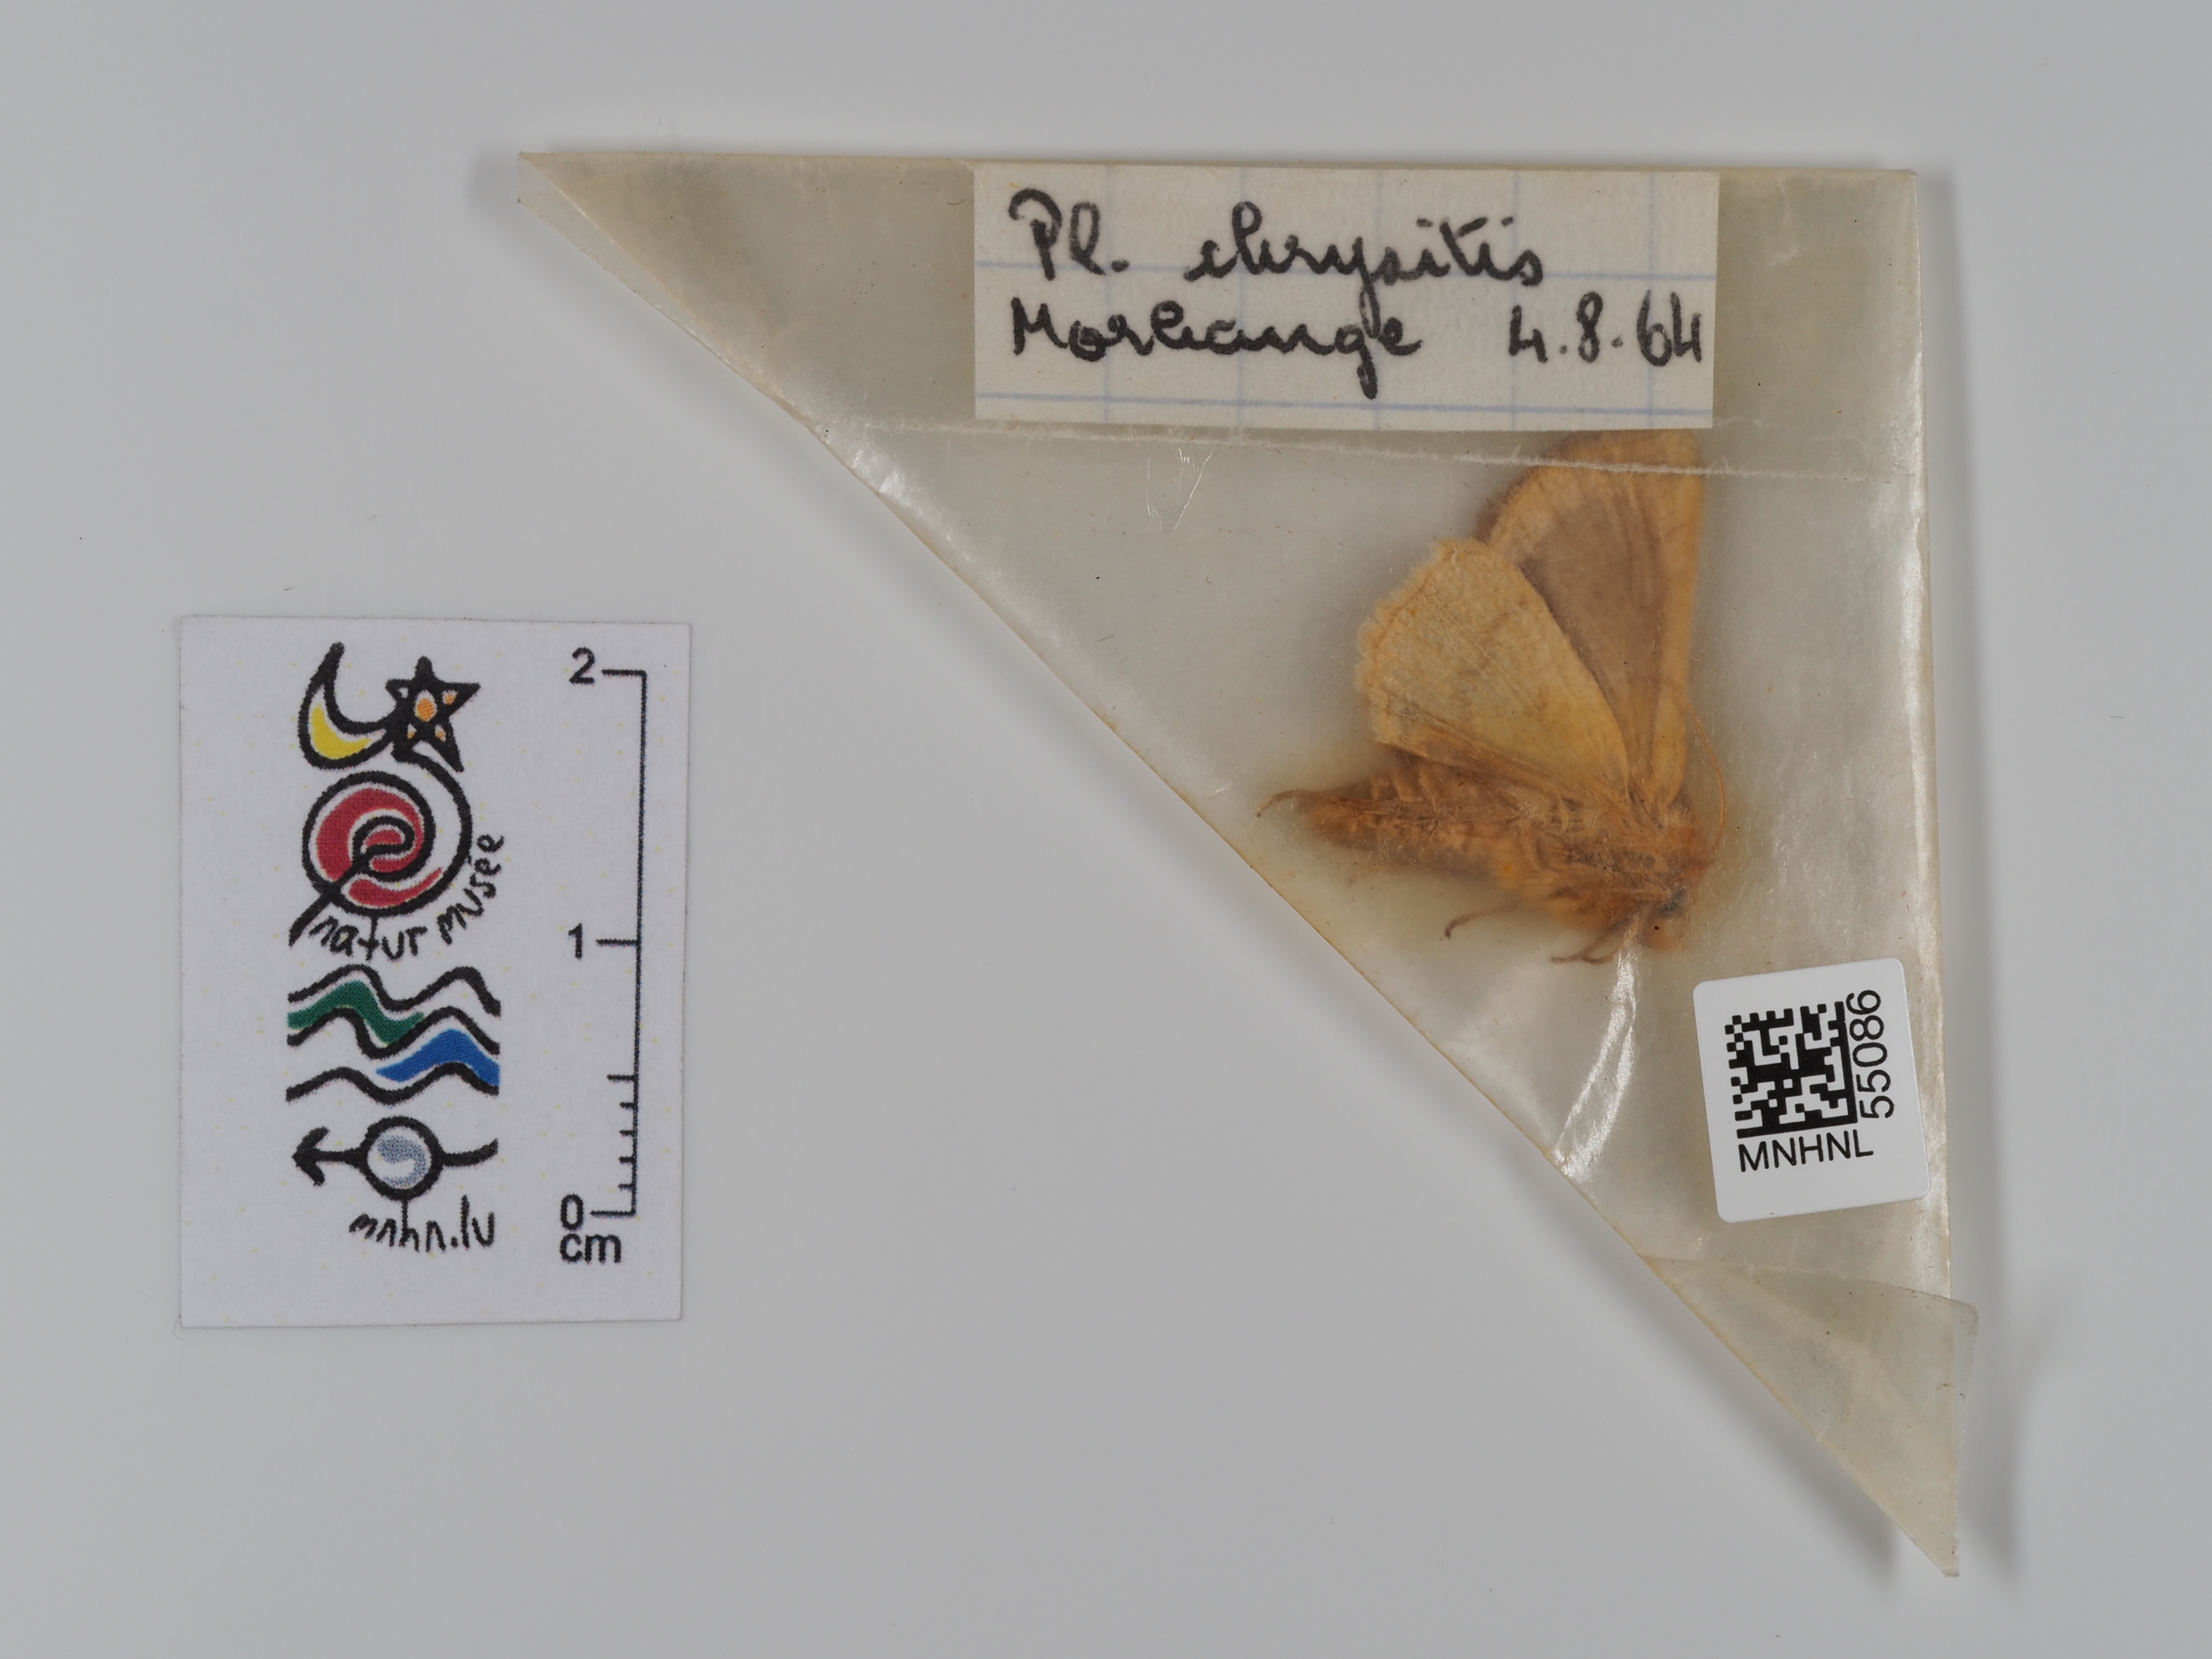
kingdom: Animalia
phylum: Arthropoda
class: Insecta
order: Lepidoptera
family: Noctuidae
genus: Diachrysia
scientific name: Diachrysia chrysitis
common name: Burnished brass
